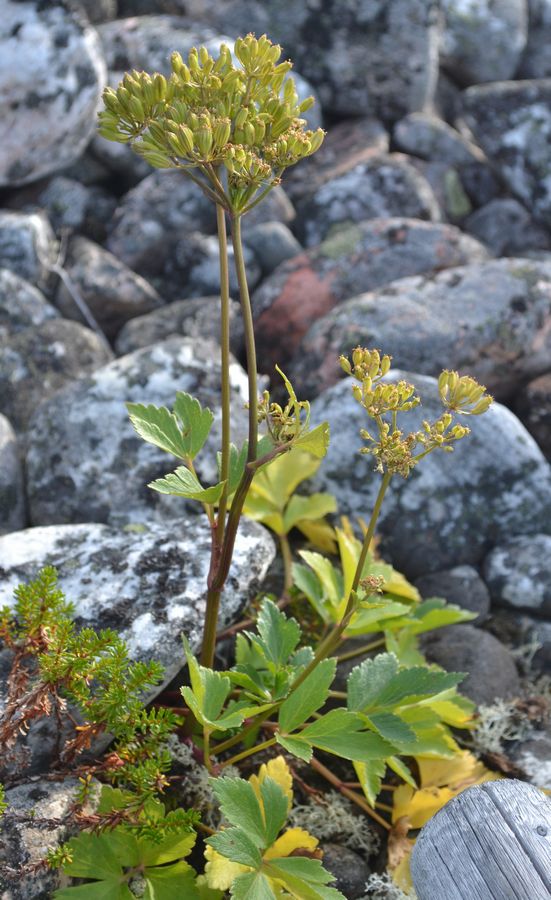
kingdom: Plantae
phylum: Tracheophyta
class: Magnoliopsida
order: Apiales
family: Apiaceae
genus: Ligusticum
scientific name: Ligusticum scothicum
